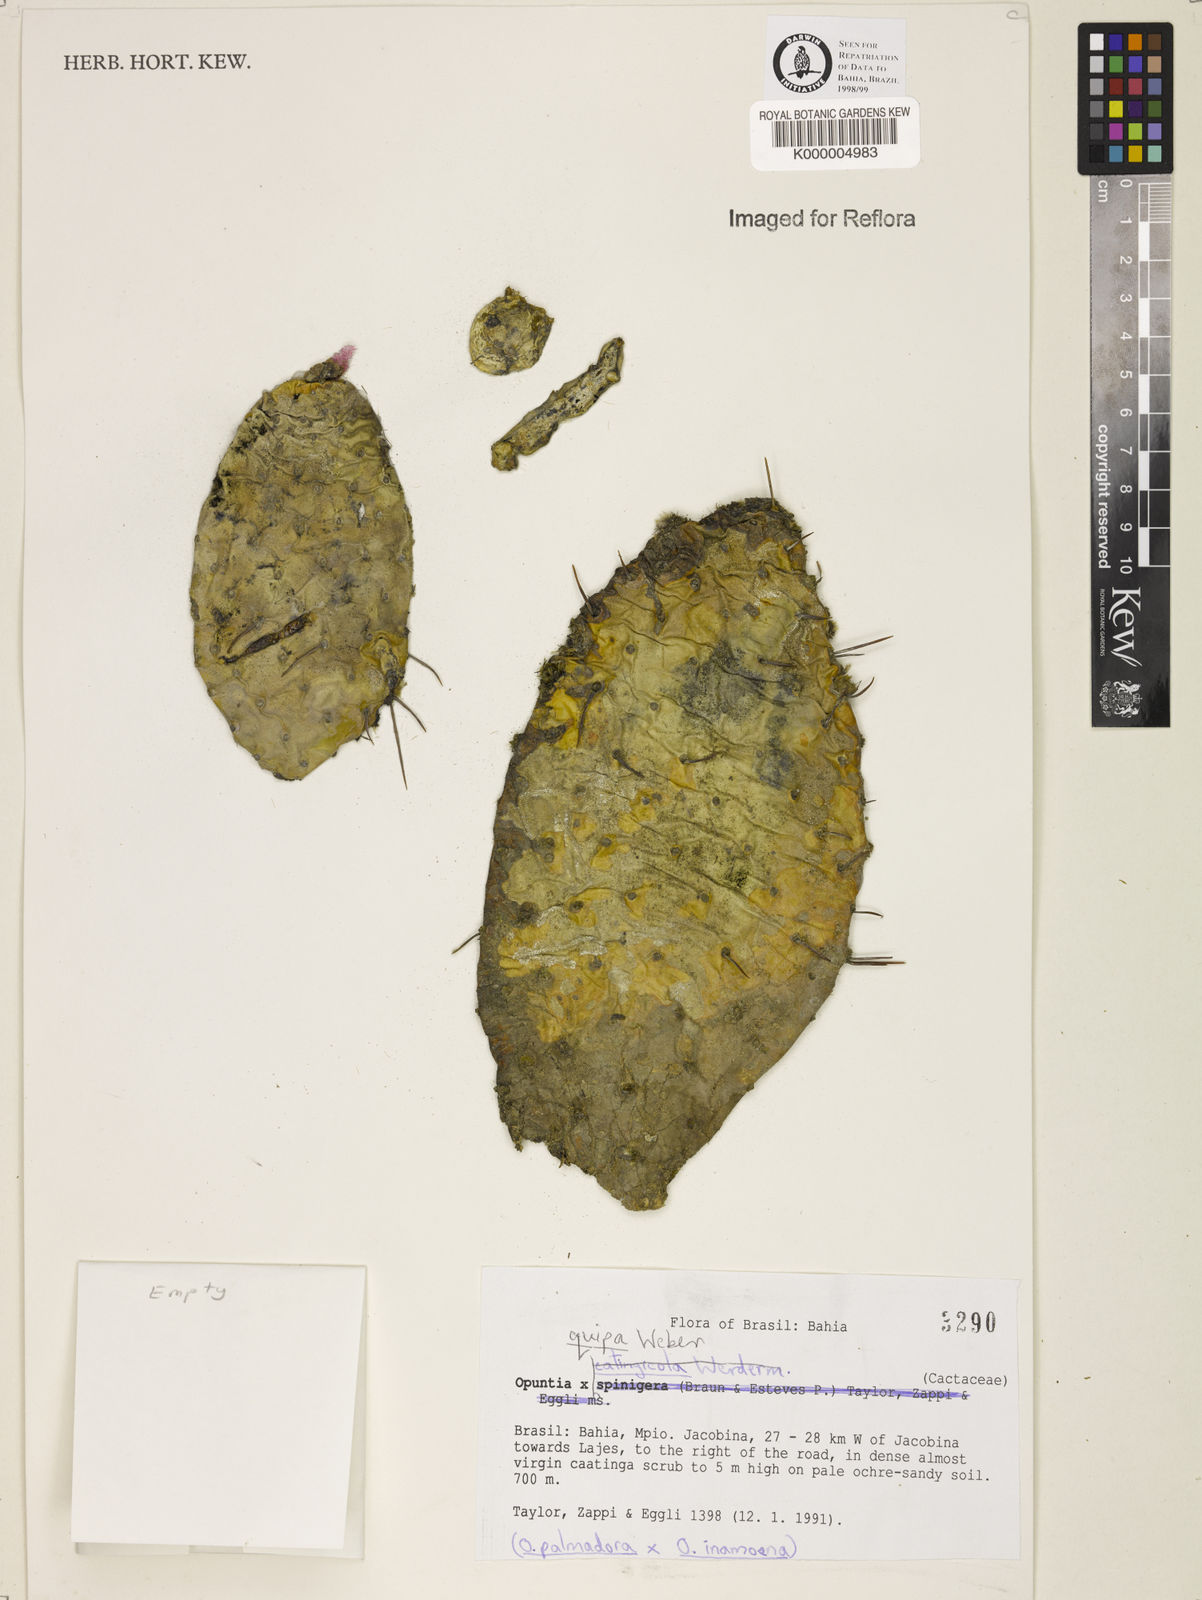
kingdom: Plantae
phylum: Tracheophyta
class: Magnoliopsida
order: Caryophyllales
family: Cactaceae
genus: Opuntia
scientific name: Opuntia
